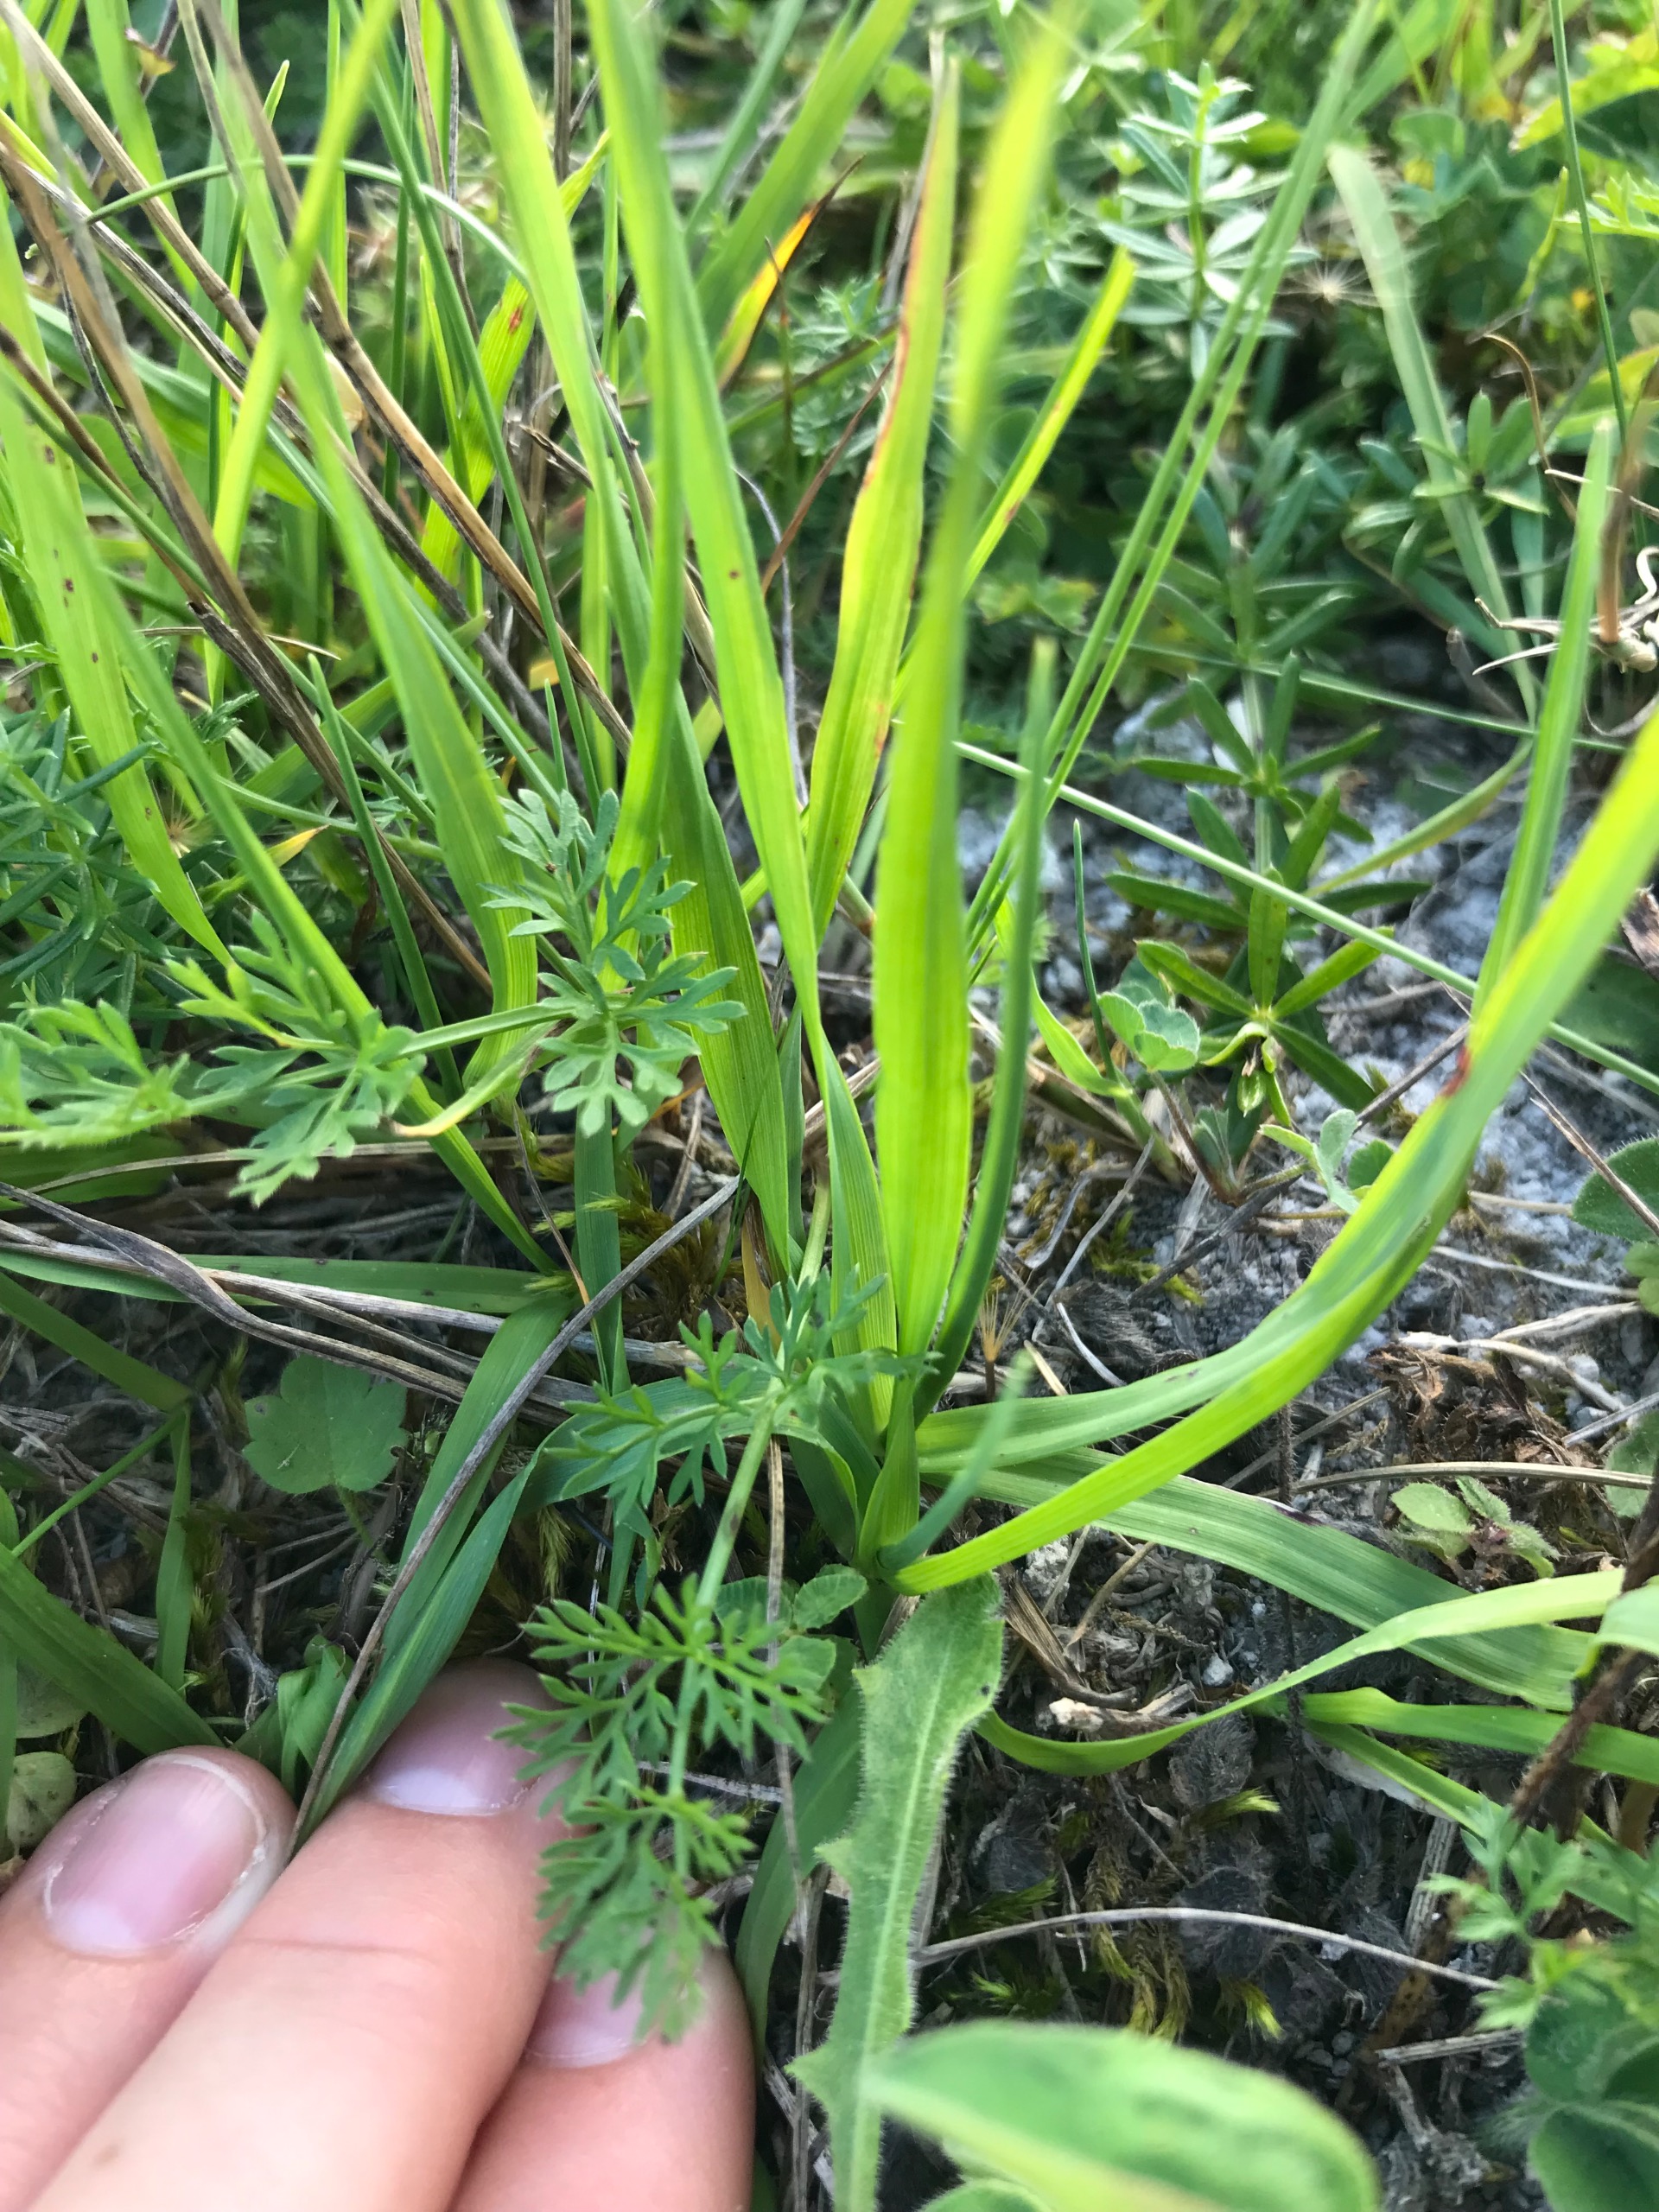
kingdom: Plantae
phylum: Tracheophyta
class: Liliopsida
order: Poales
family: Poaceae
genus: Briza
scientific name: Briza media
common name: Hjertegræs
